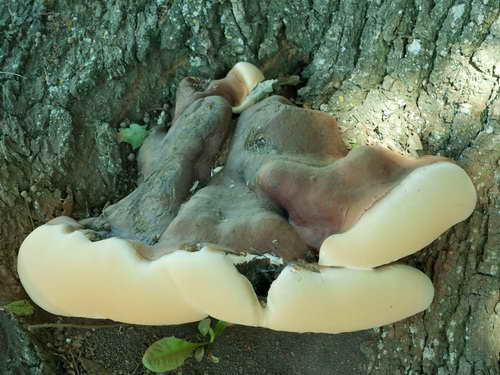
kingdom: Fungi
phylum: Basidiomycota
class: Agaricomycetes
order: Polyporales
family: Polyporaceae
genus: Ganoderma
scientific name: Ganoderma resinaceum
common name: gyldenbrun lakporesvamp
